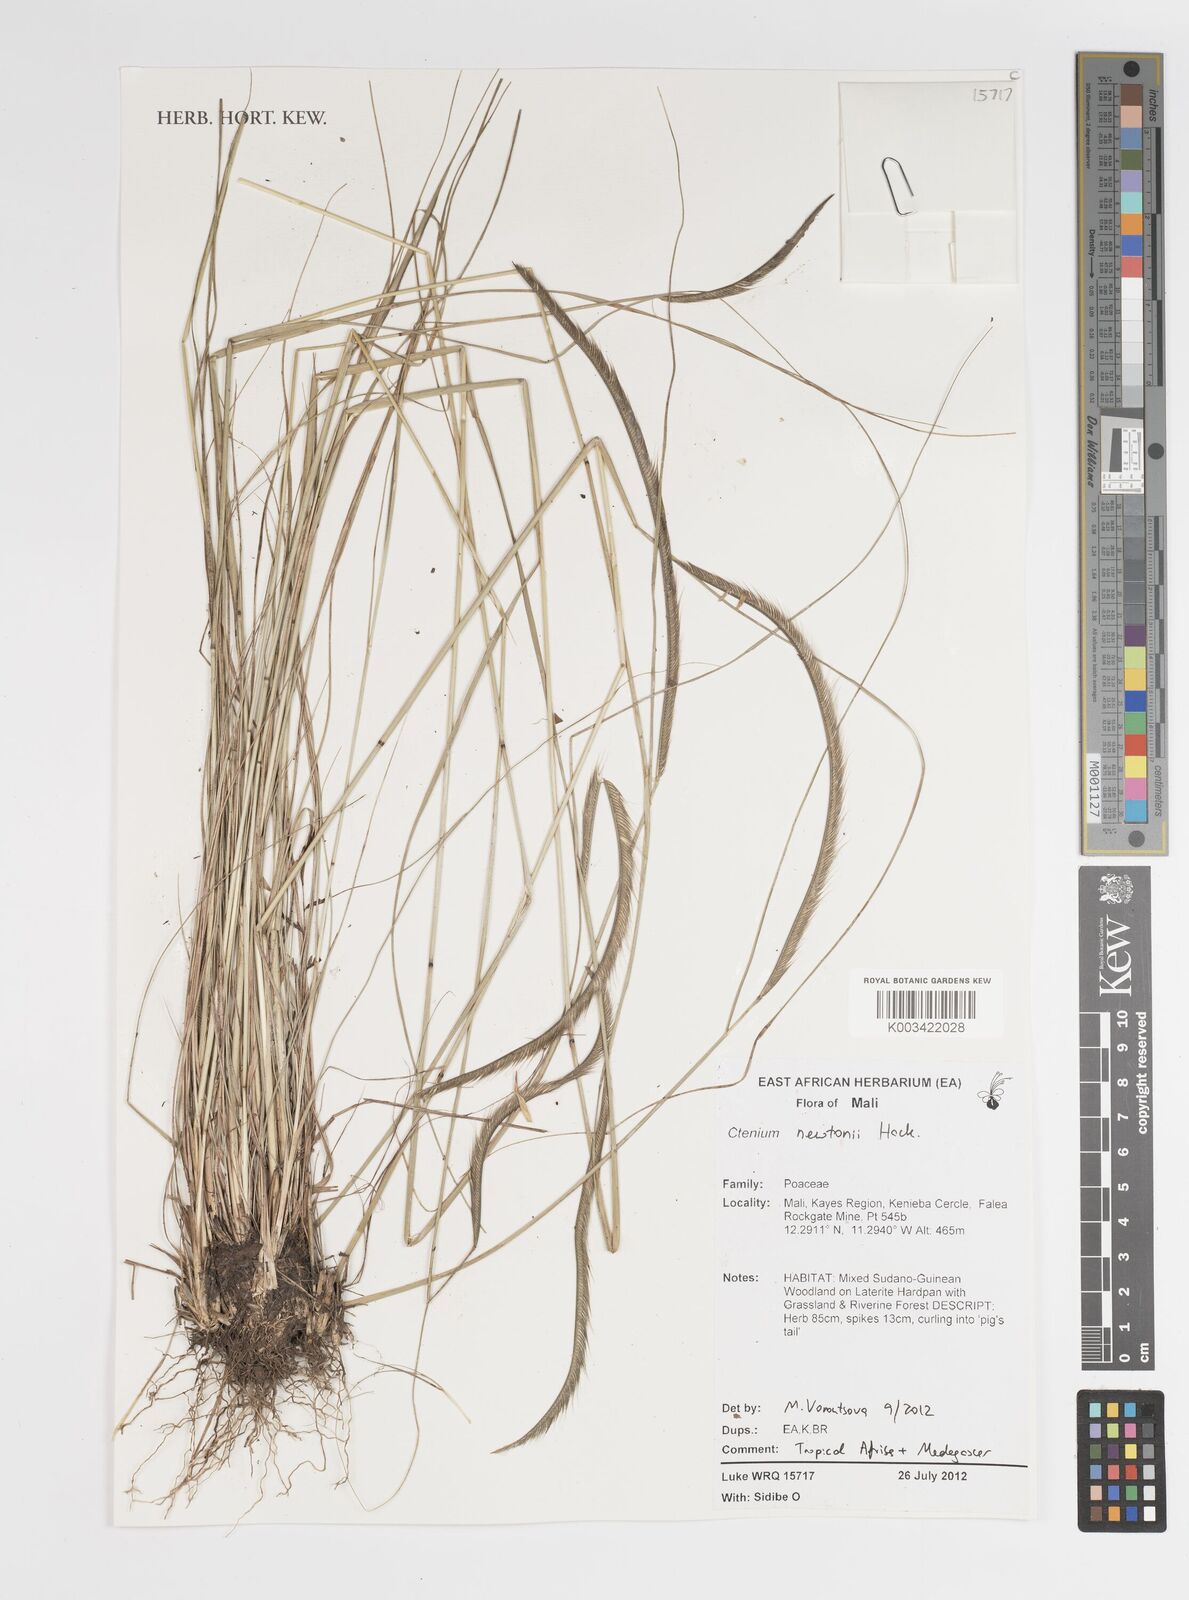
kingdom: Plantae
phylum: Tracheophyta
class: Liliopsida
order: Poales
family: Poaceae
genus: Ctenium
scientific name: Ctenium newtonii
